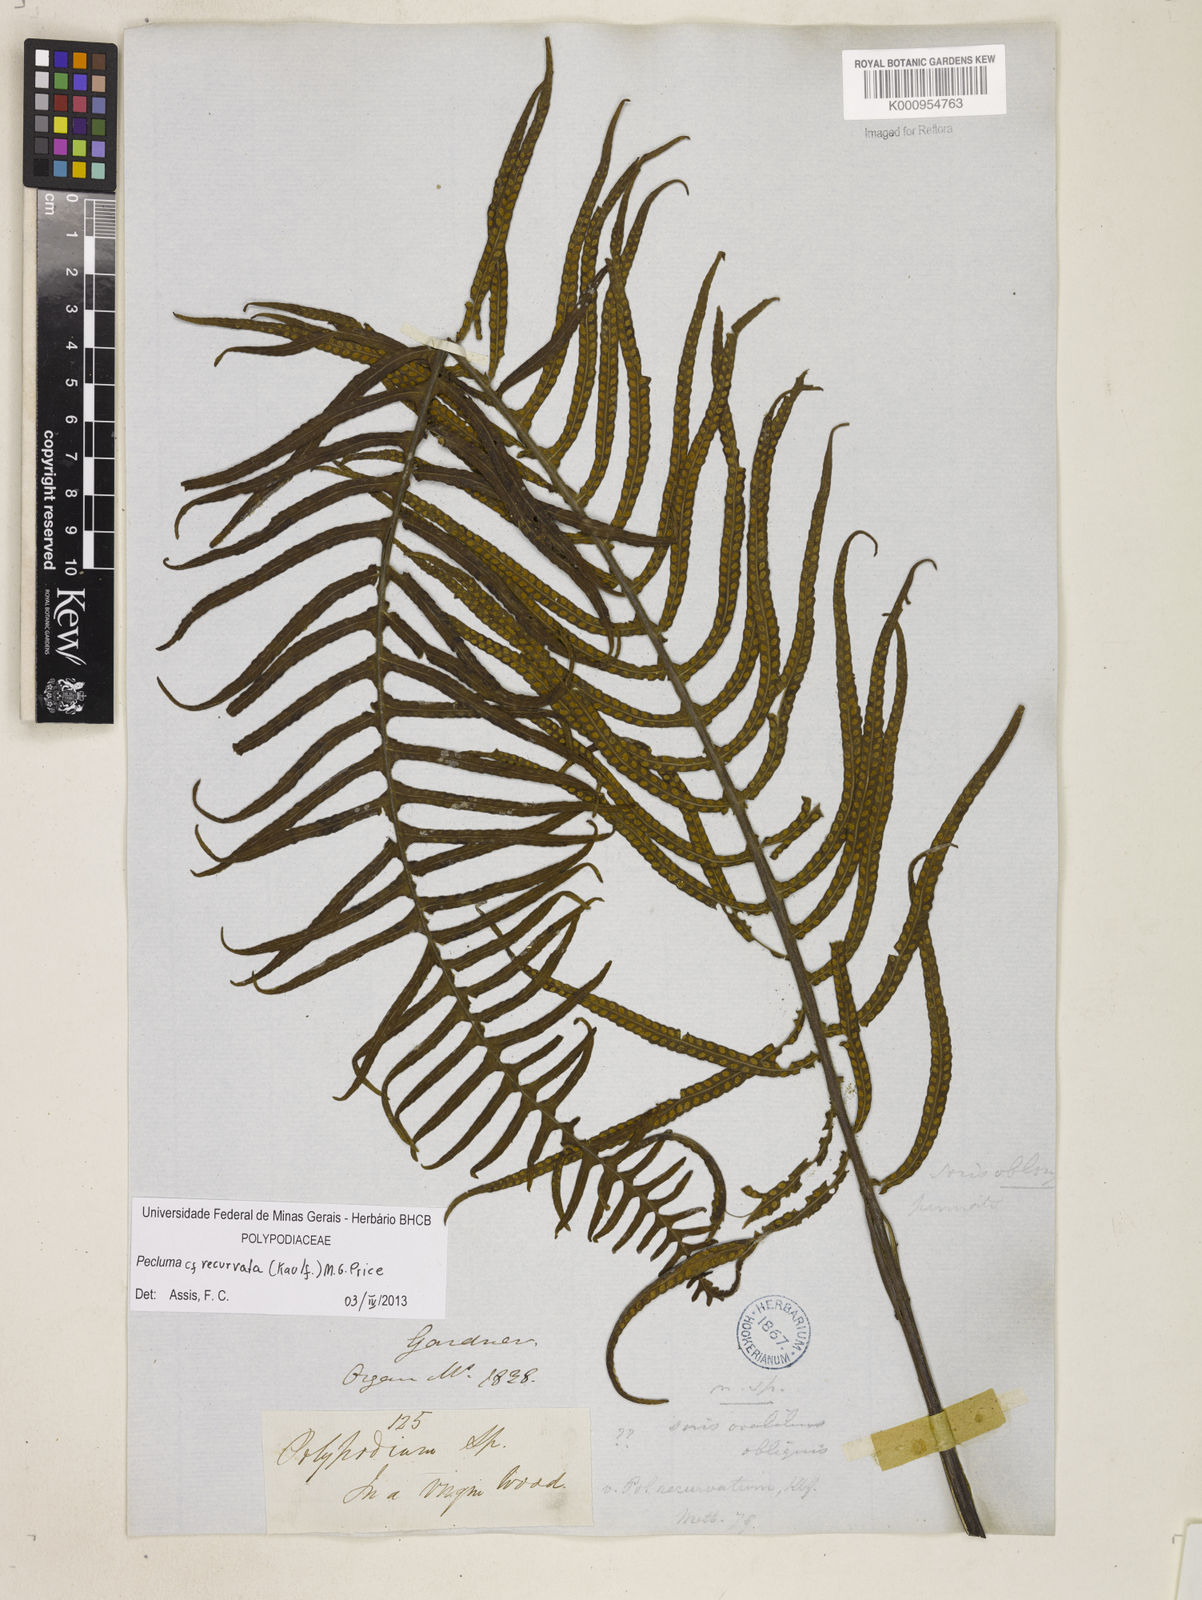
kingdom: Plantae
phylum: Tracheophyta
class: Polypodiopsida
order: Polypodiales
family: Polypodiaceae
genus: Pecluma
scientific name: Pecluma recurvata
